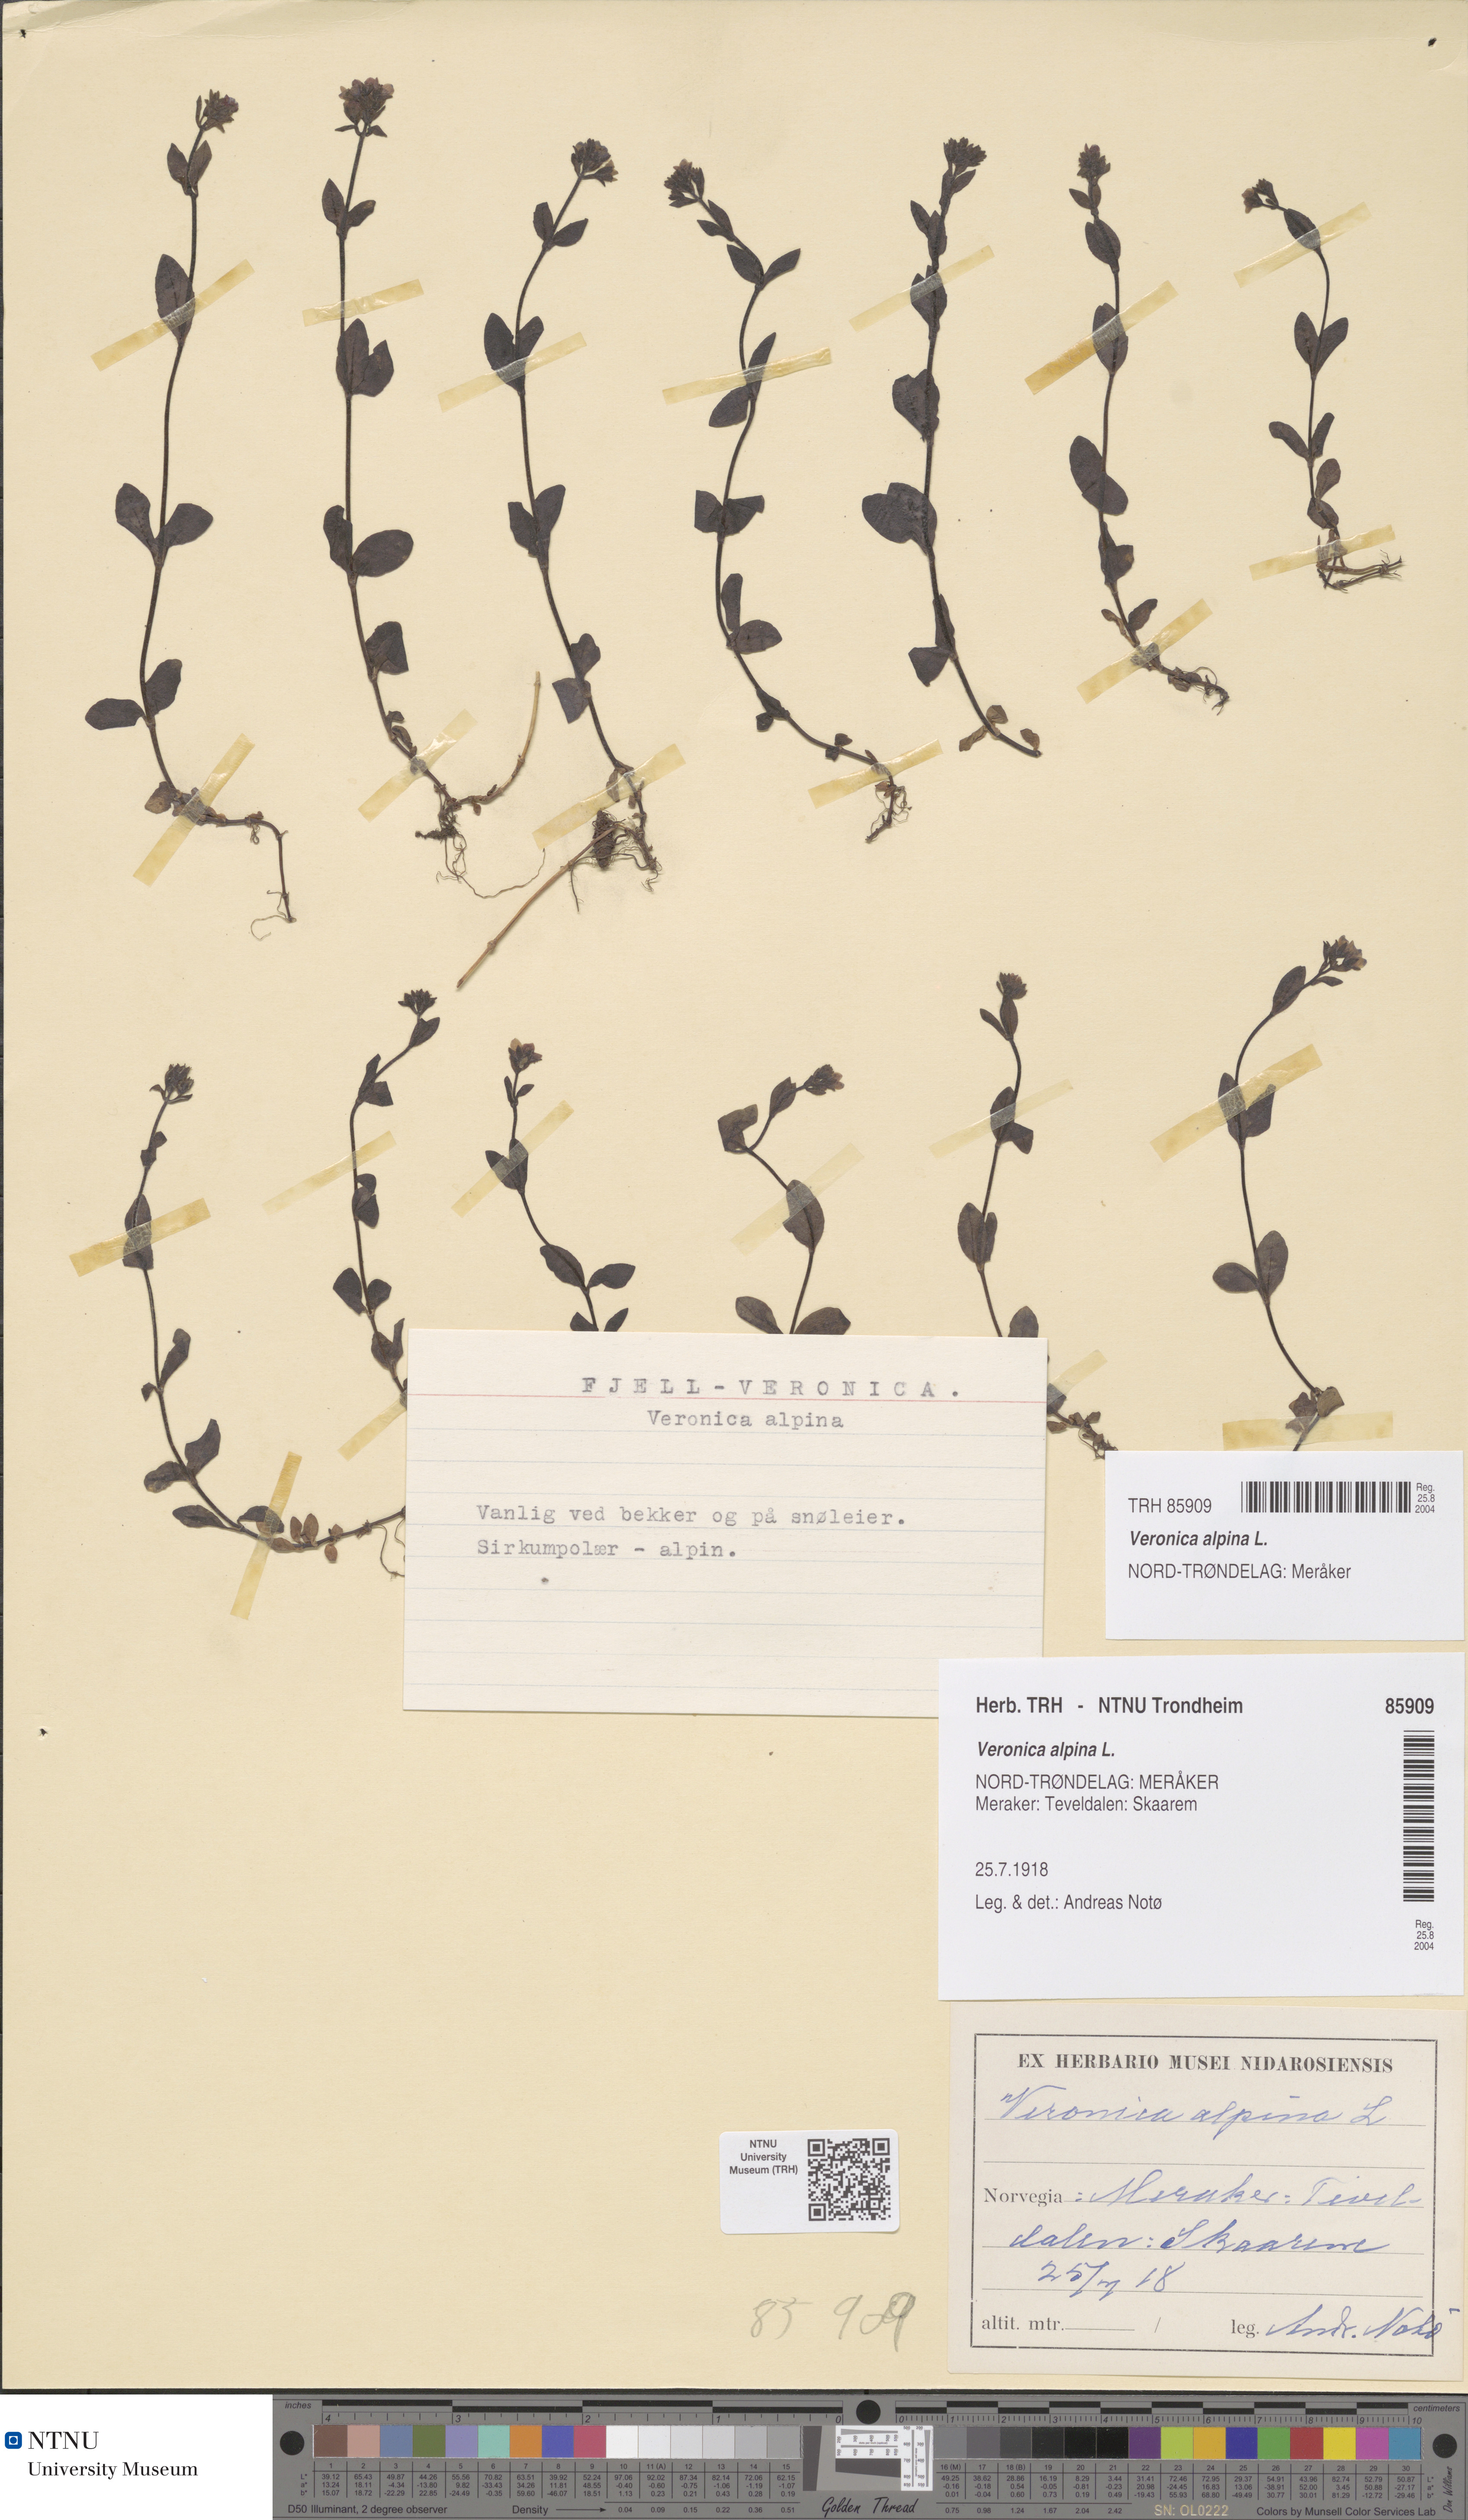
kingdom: Plantae
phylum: Tracheophyta
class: Magnoliopsida
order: Lamiales
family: Plantaginaceae
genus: Veronica
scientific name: Veronica alpina
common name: Alpine speedwell
